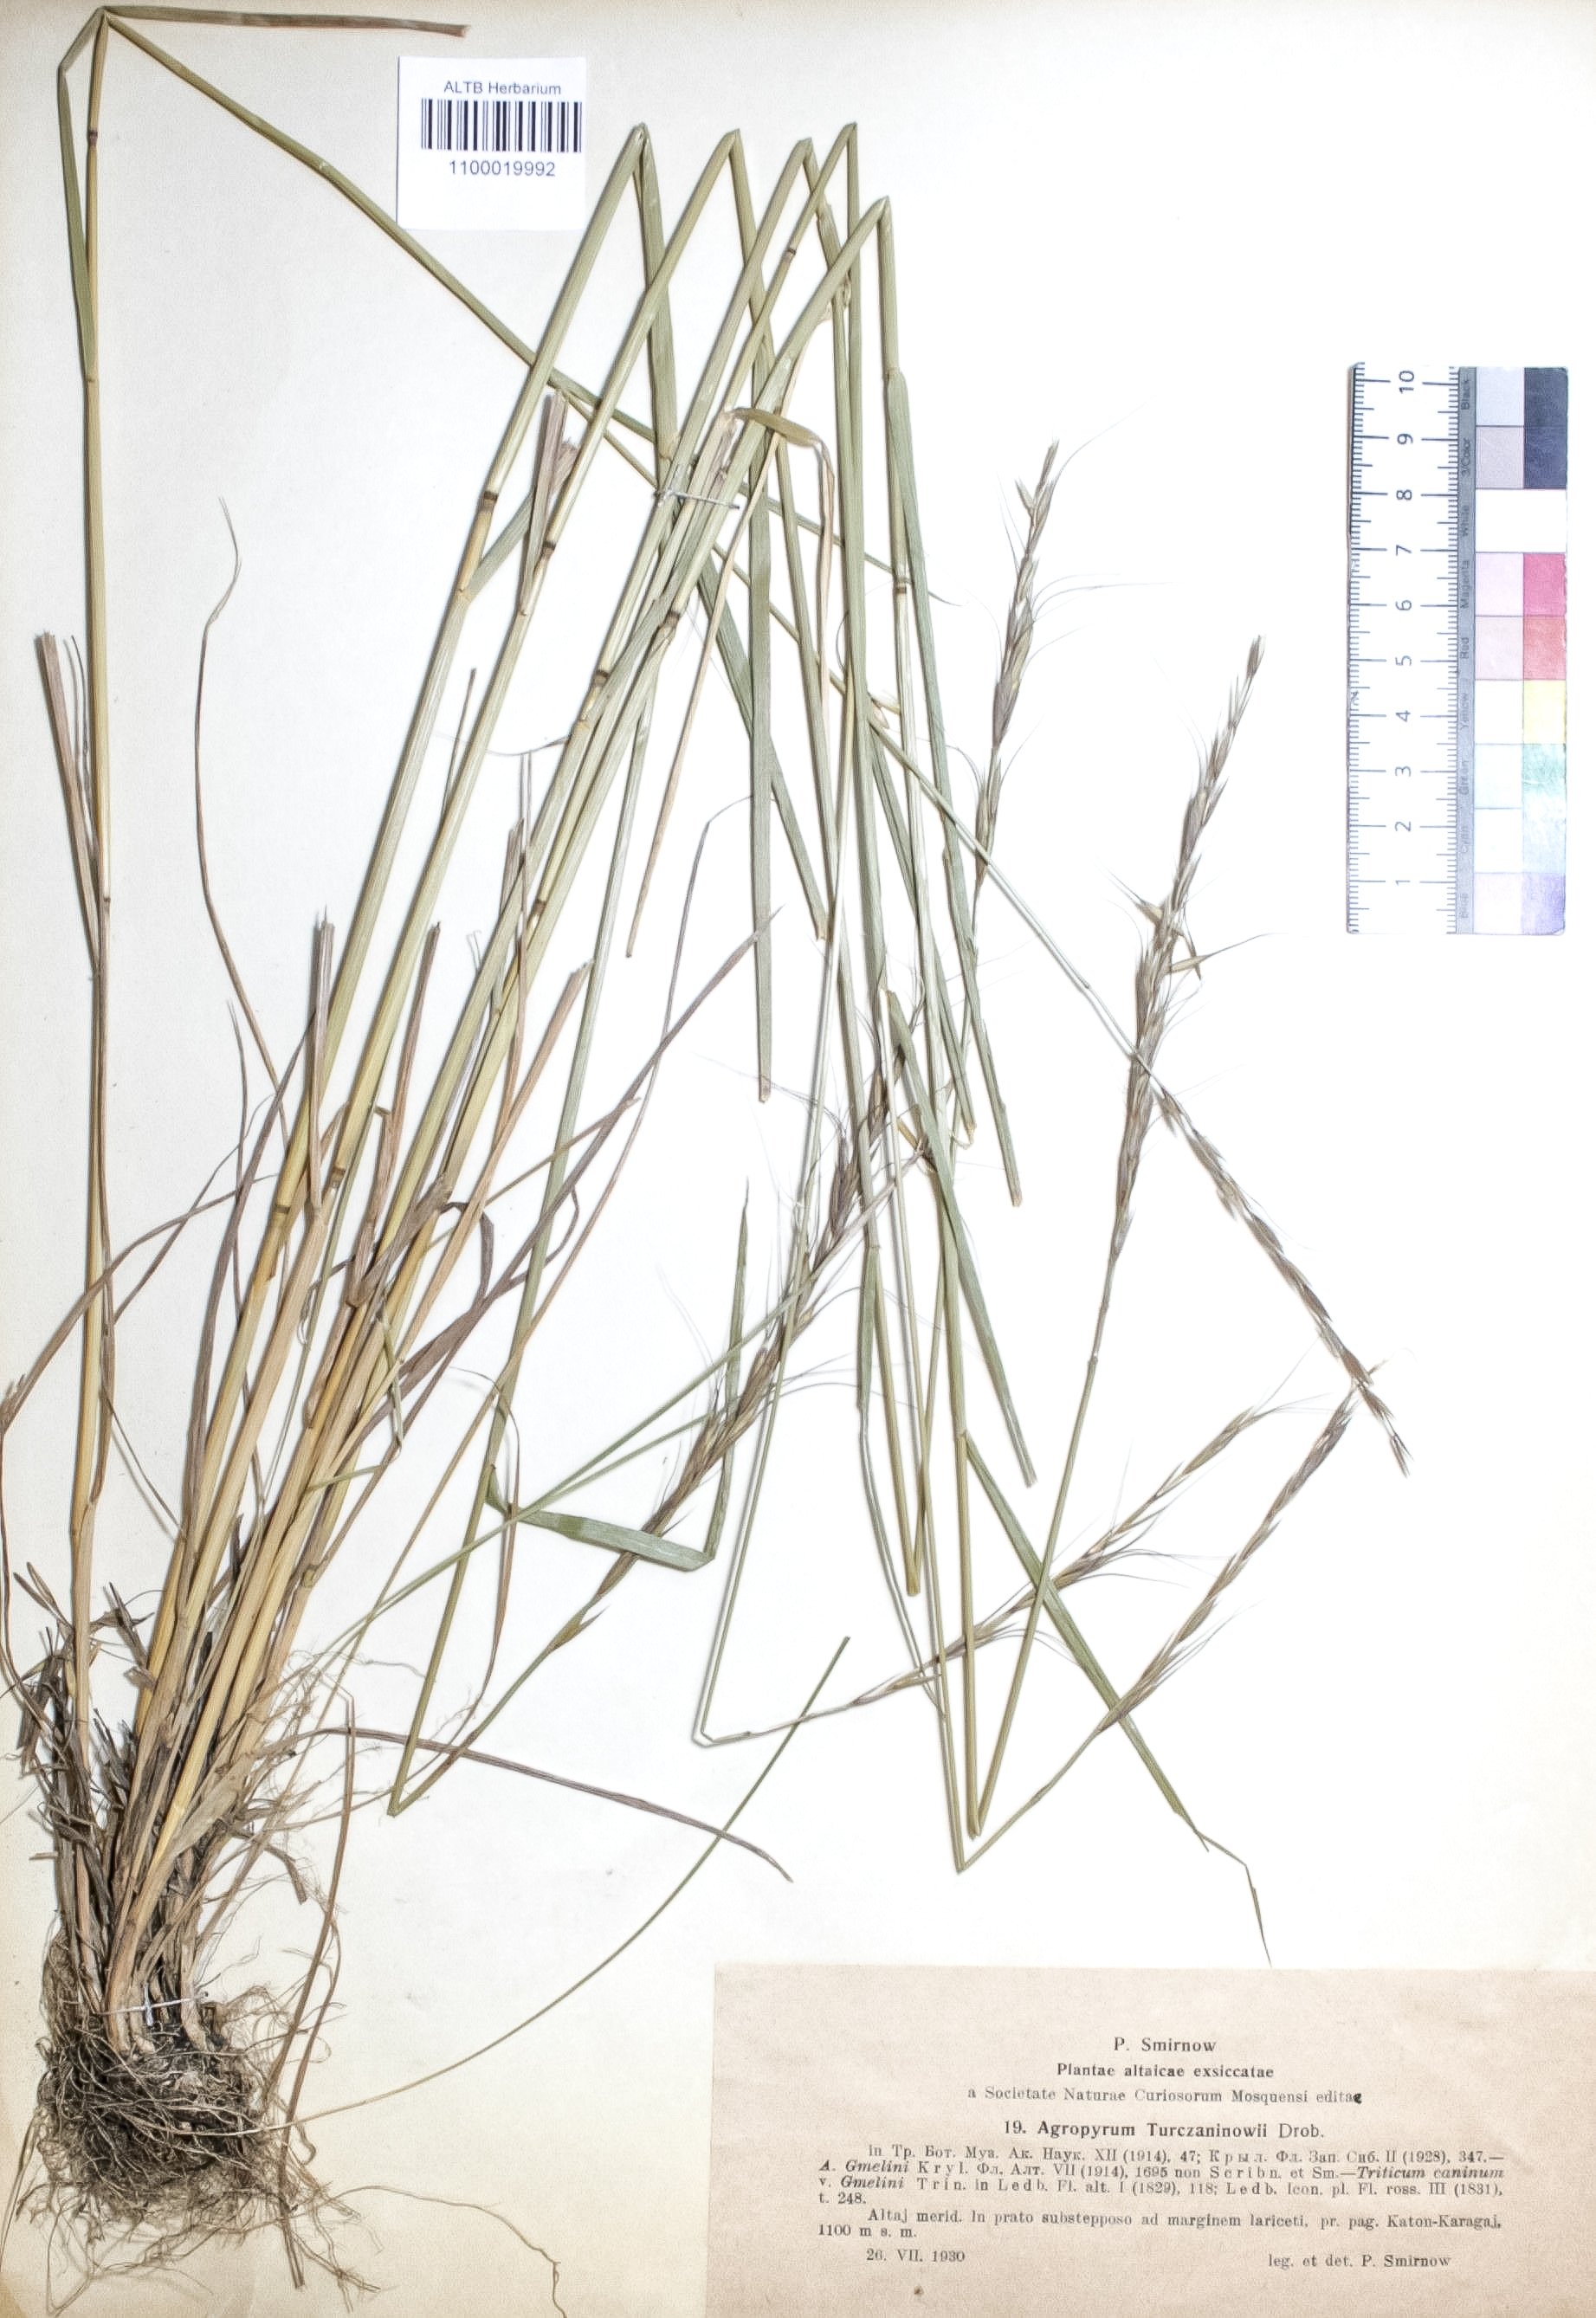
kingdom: Plantae
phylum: Tracheophyta
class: Liliopsida
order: Poales
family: Poaceae
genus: Pseudoroegneria
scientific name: Pseudoroegneria reflexiaristata
